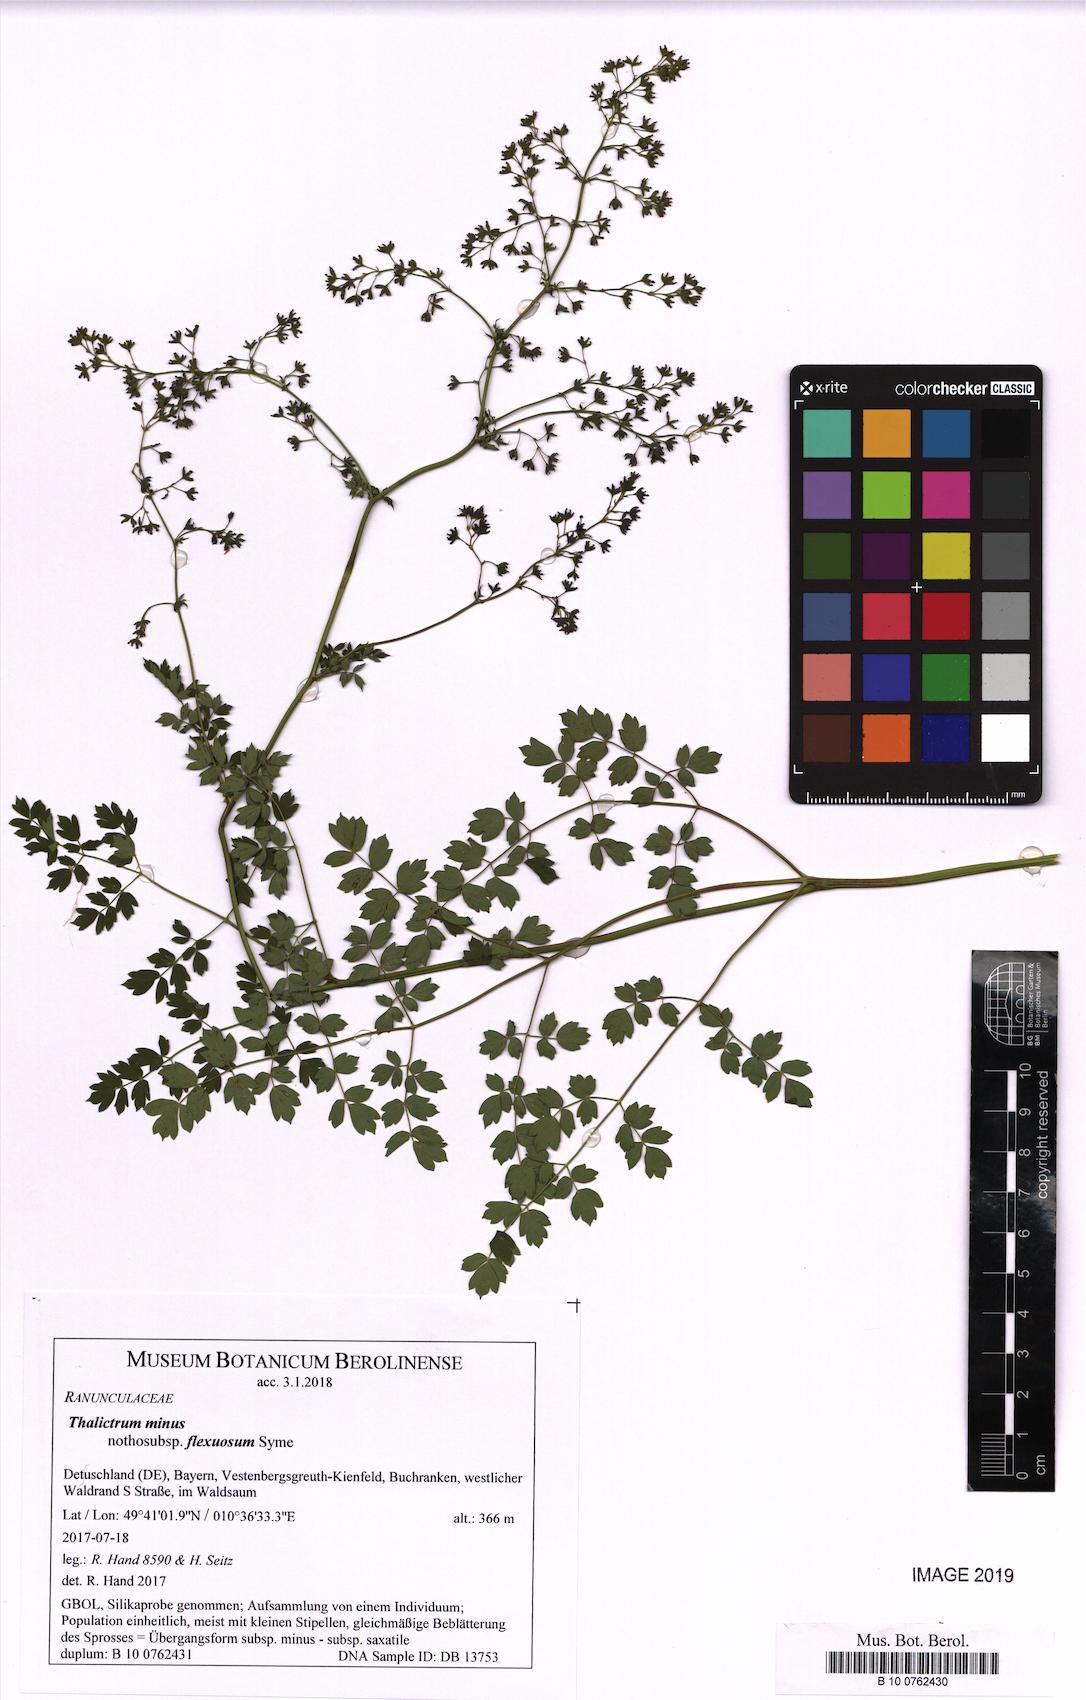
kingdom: Plantae
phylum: Tracheophyta
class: Magnoliopsida
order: Ranunculales
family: Ranunculaceae
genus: Thalictrum
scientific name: Thalictrum minus
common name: Lesser meadow-rue
